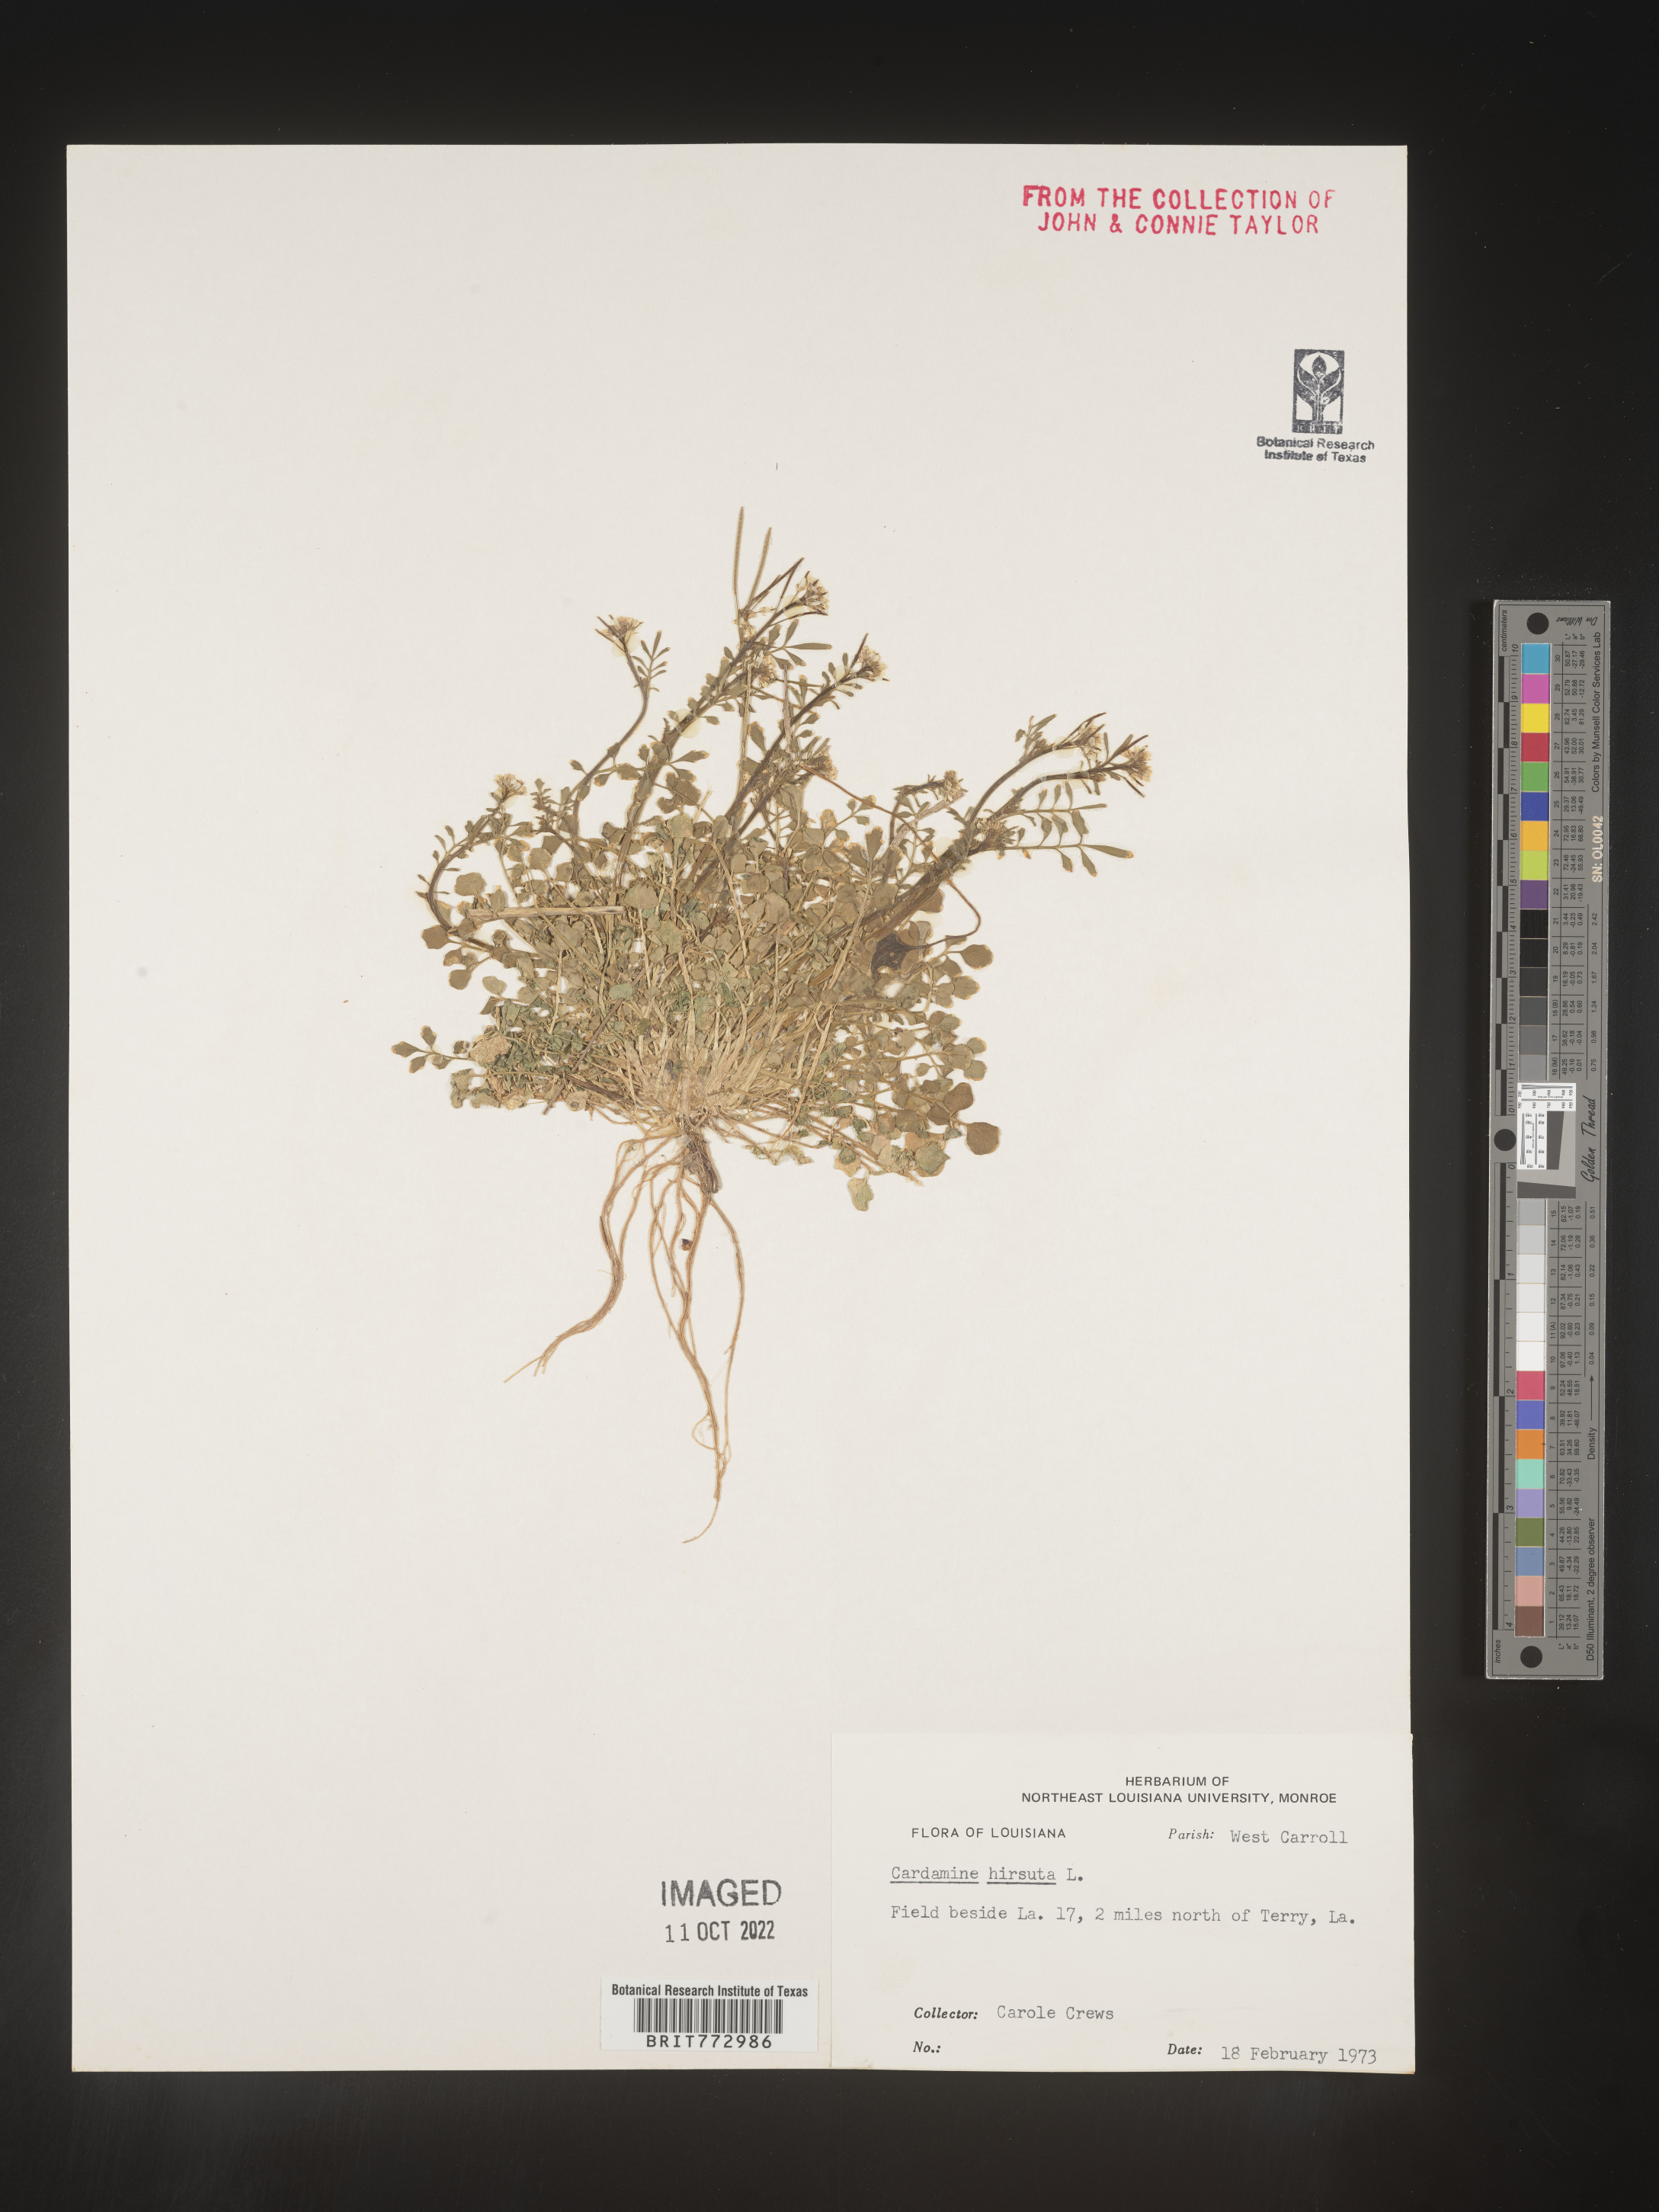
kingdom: Plantae
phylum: Tracheophyta
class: Magnoliopsida
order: Brassicales
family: Brassicaceae
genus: Cardamine
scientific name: Cardamine hirsuta
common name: Hairy bittercress
